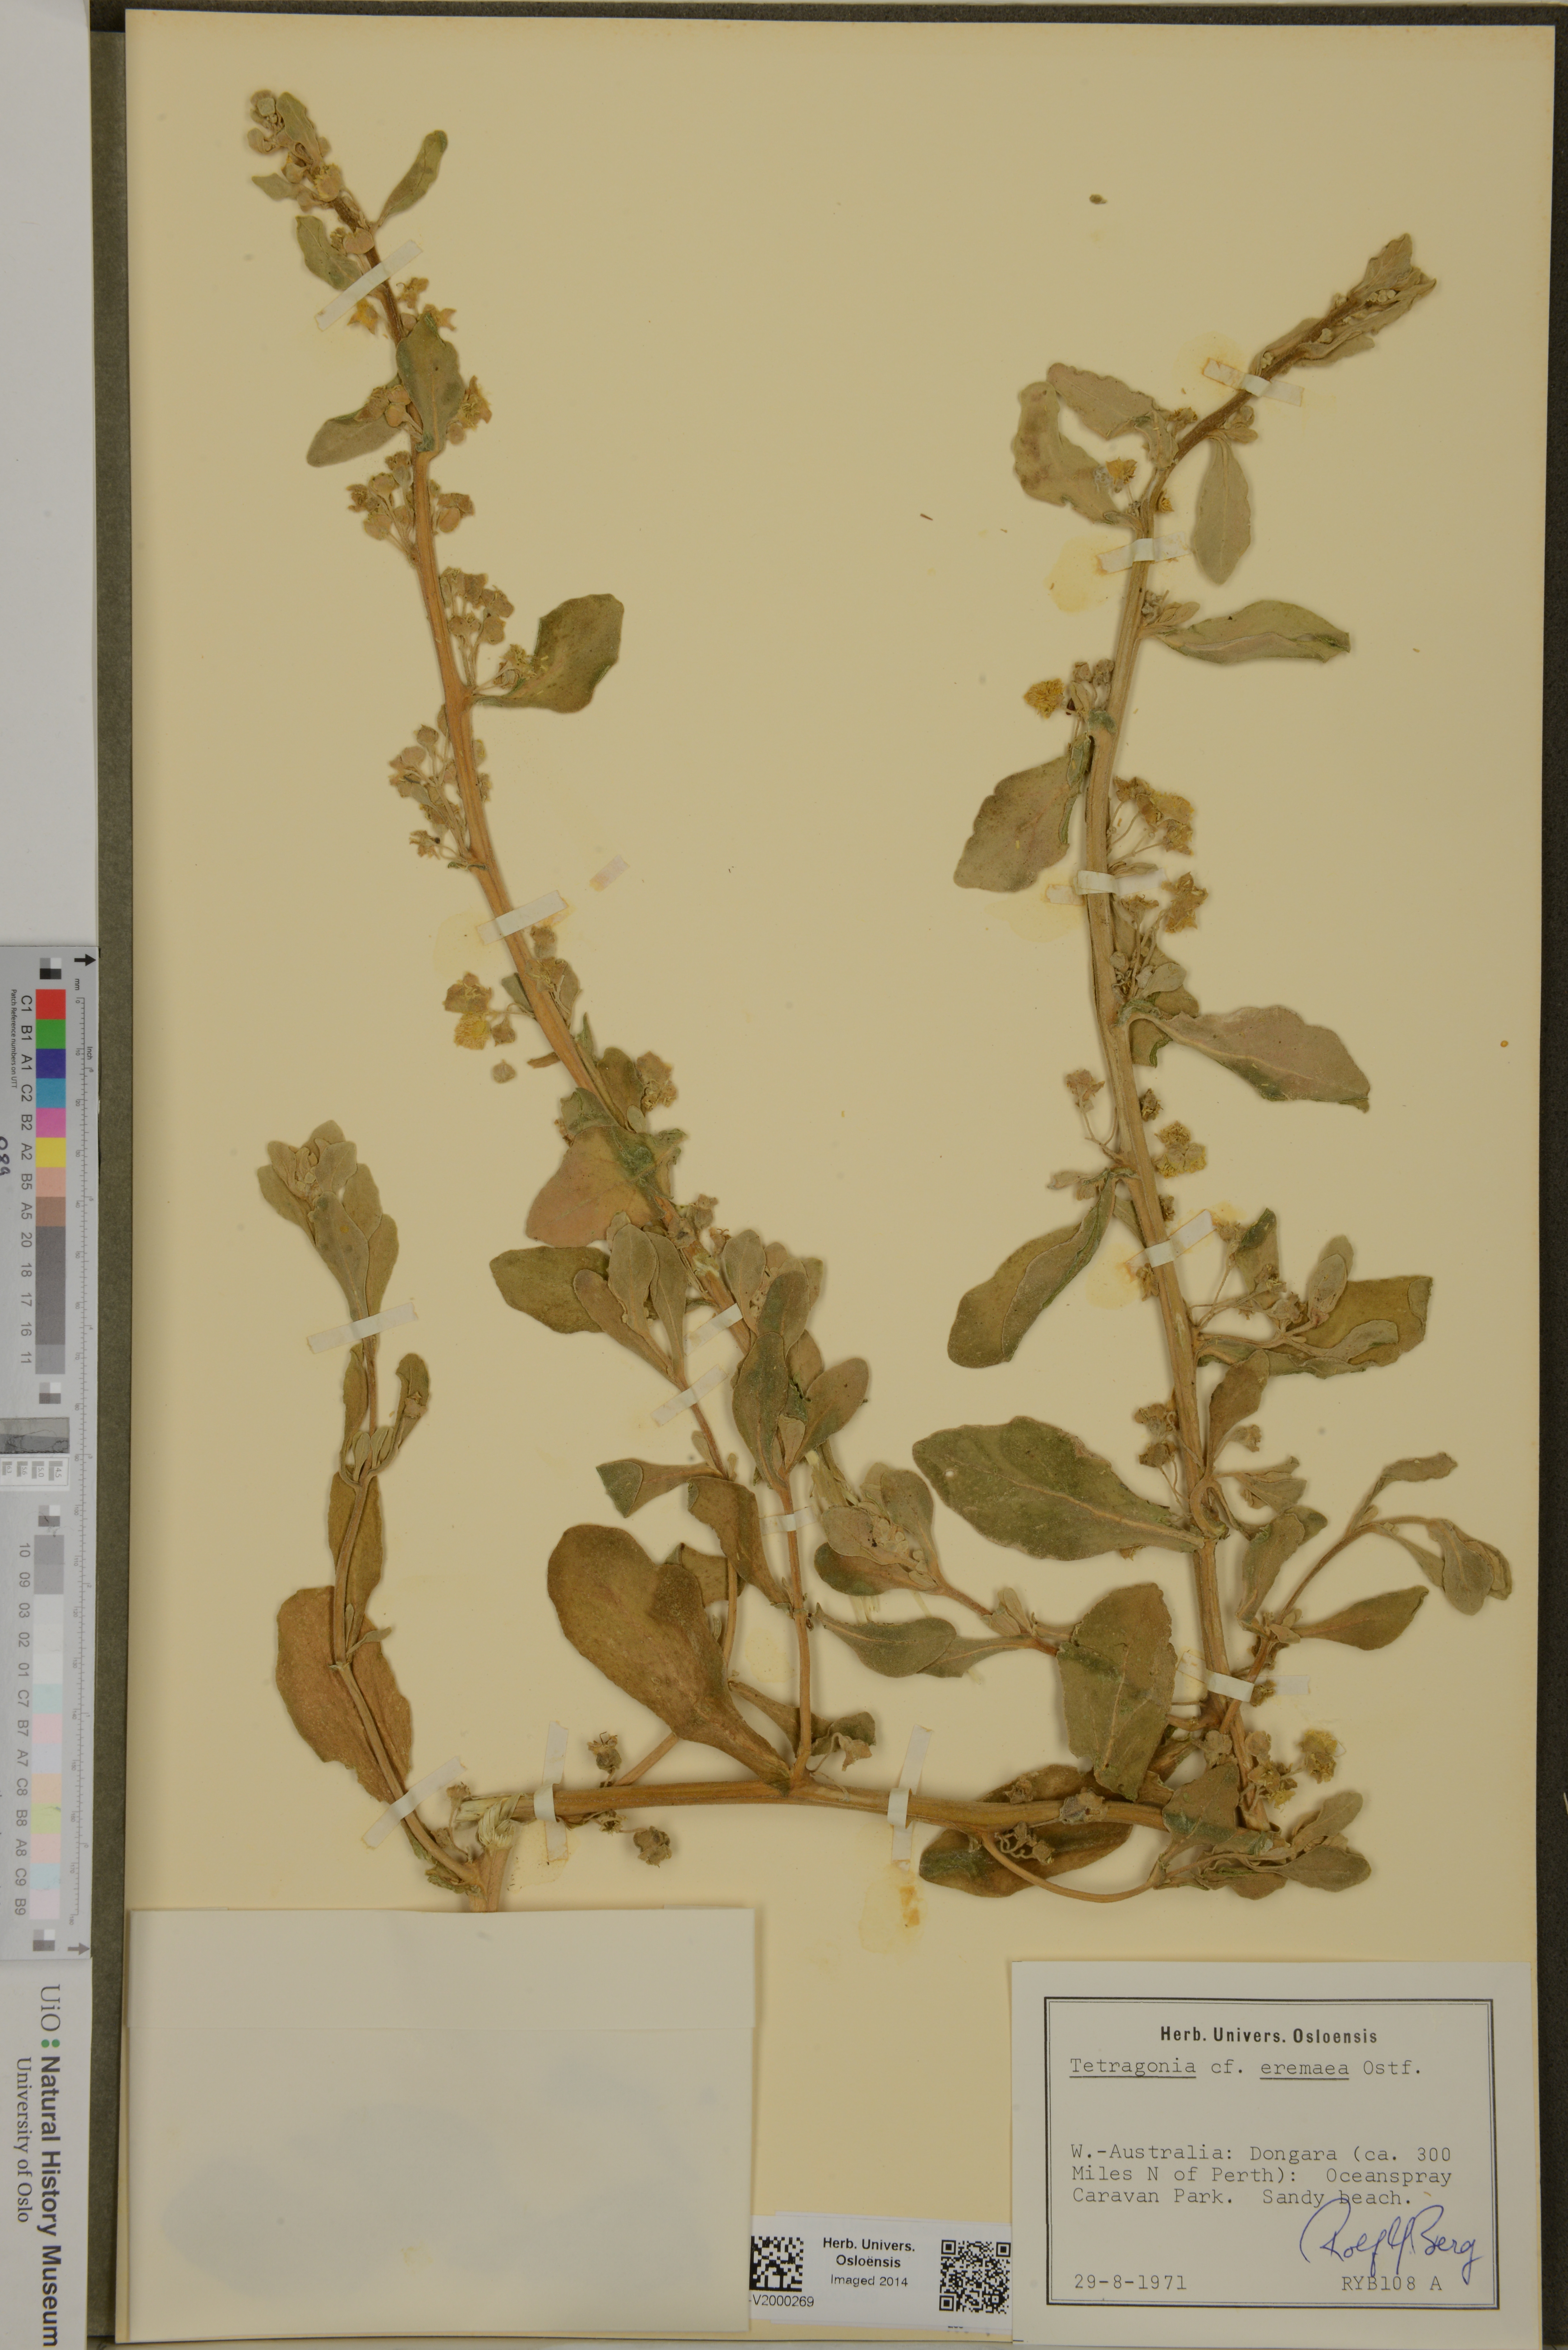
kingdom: Plantae
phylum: Tracheophyta
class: Magnoliopsida
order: Caryophyllales
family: Aizoaceae
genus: Tetragonia
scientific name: Tetragonia eremaea
